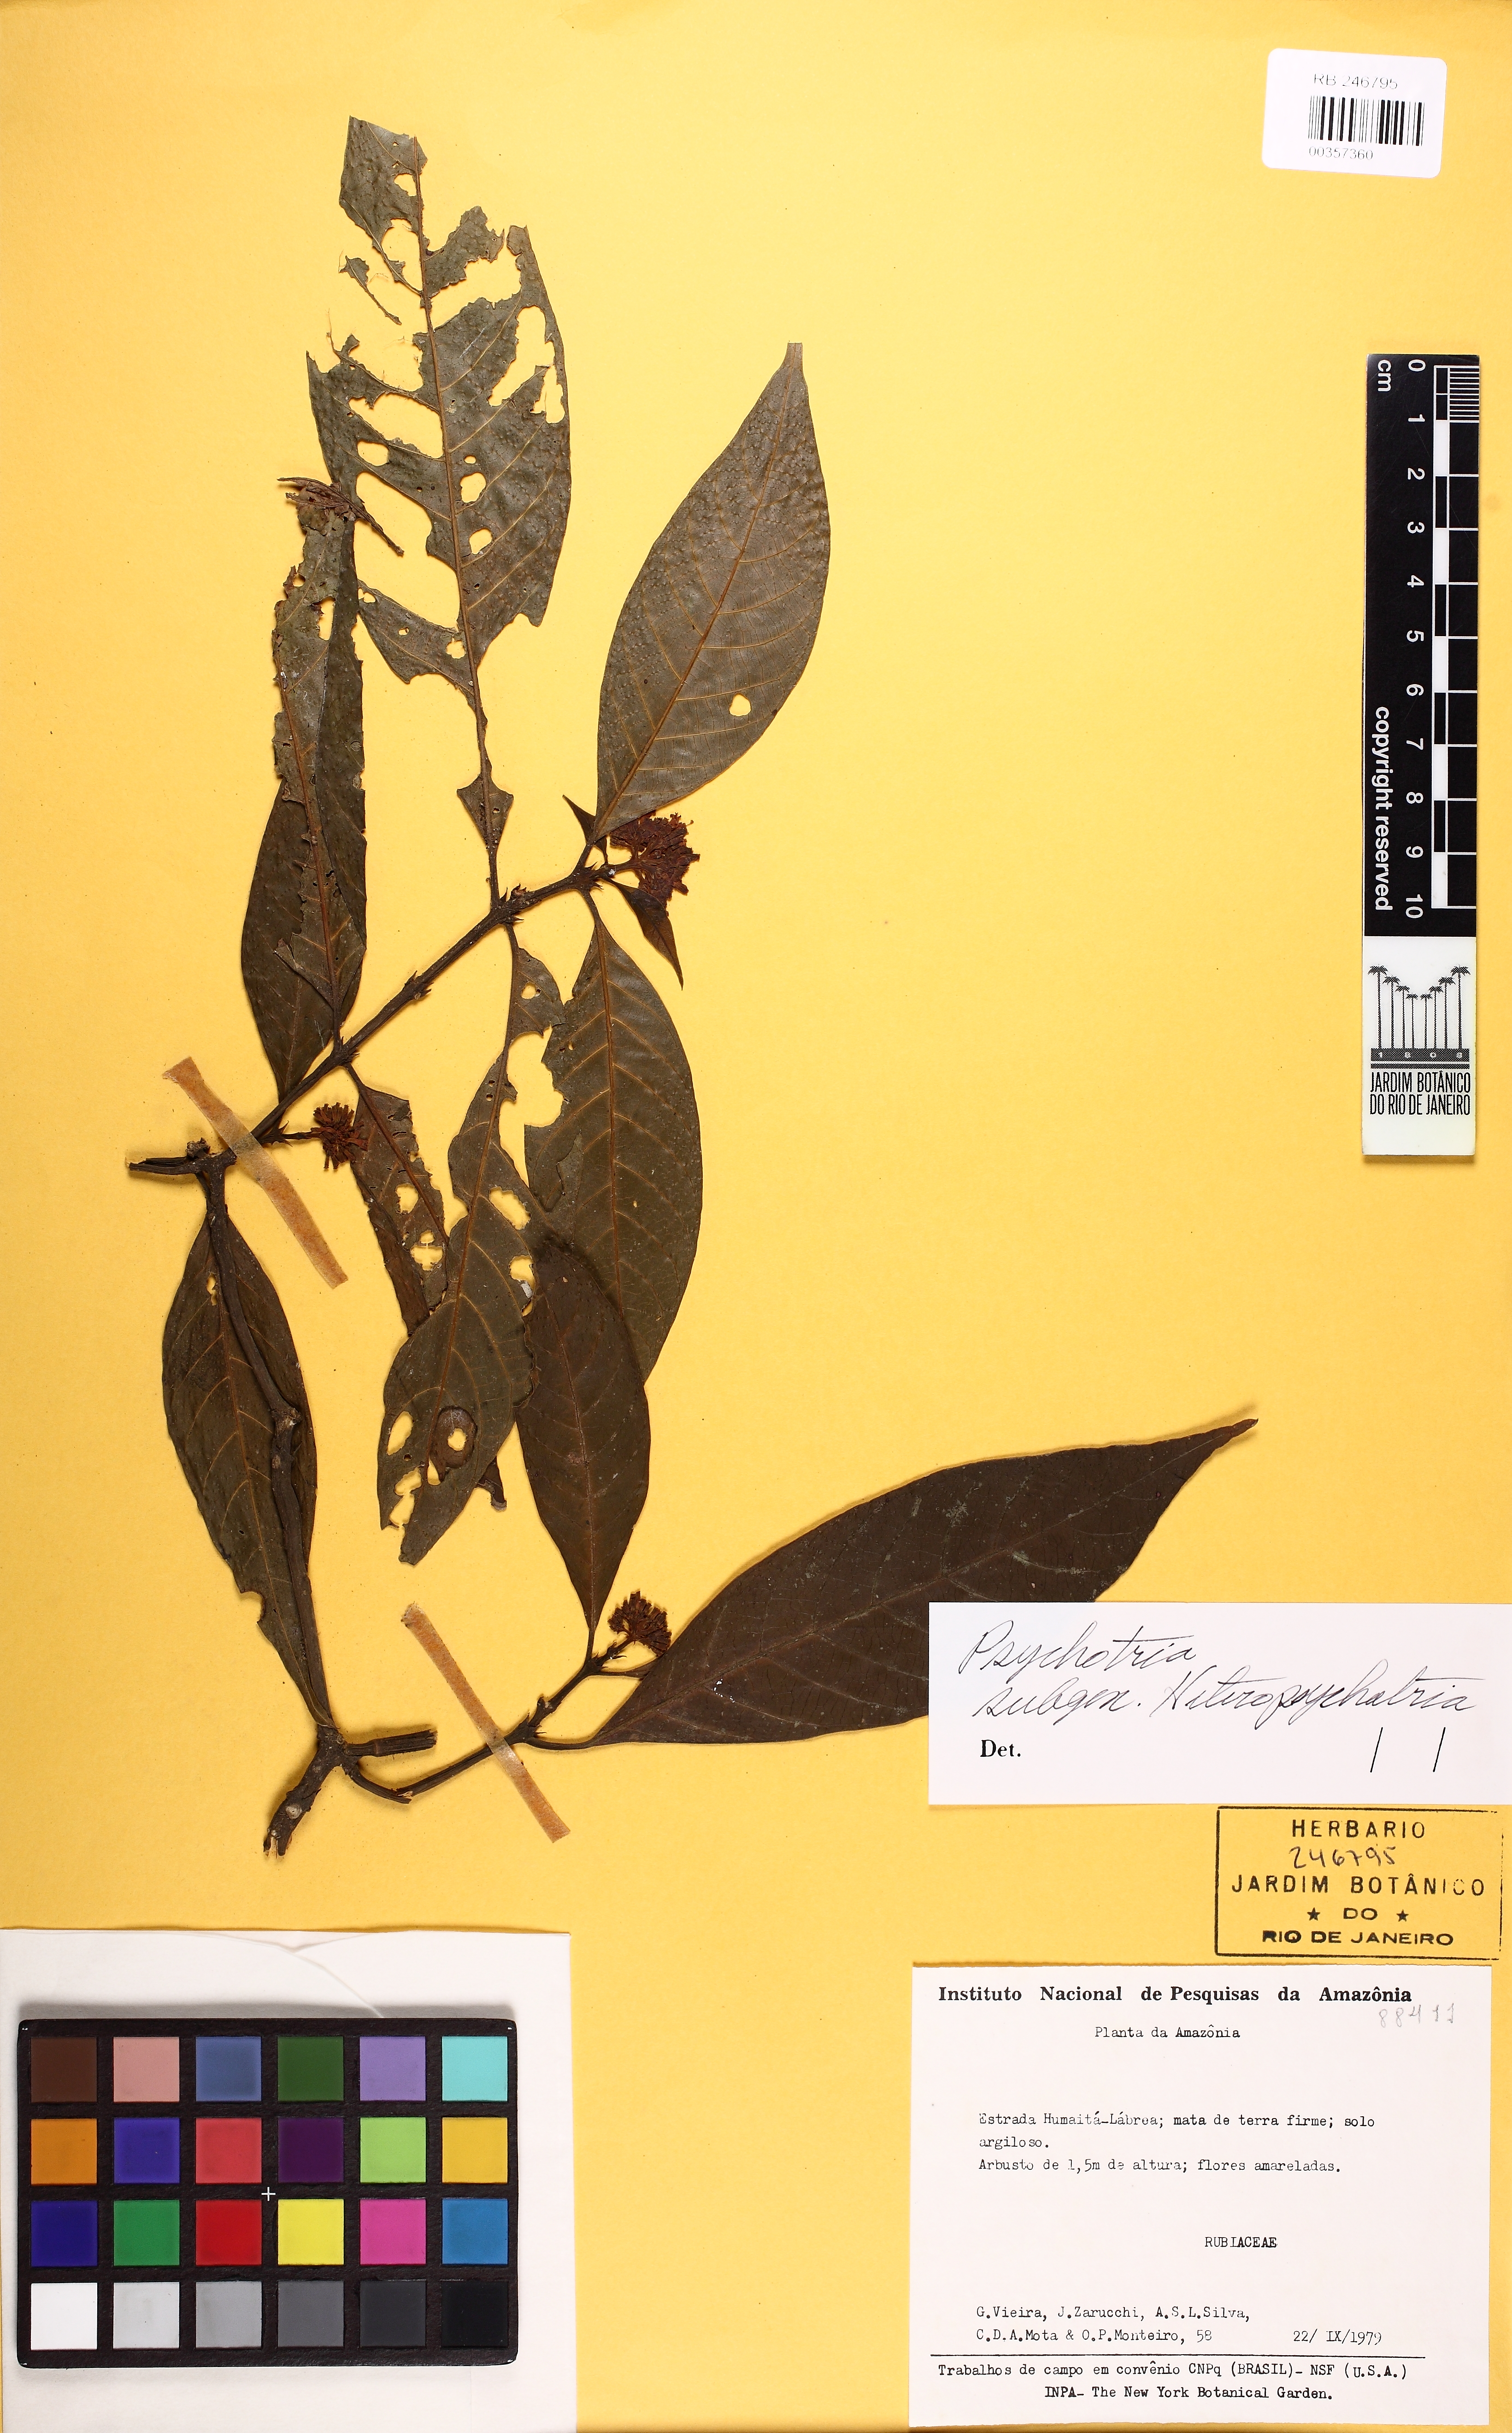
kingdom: Plantae
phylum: Tracheophyta
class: Magnoliopsida
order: Gentianales
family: Rubiaceae
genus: Psychotria
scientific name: Psychotria
